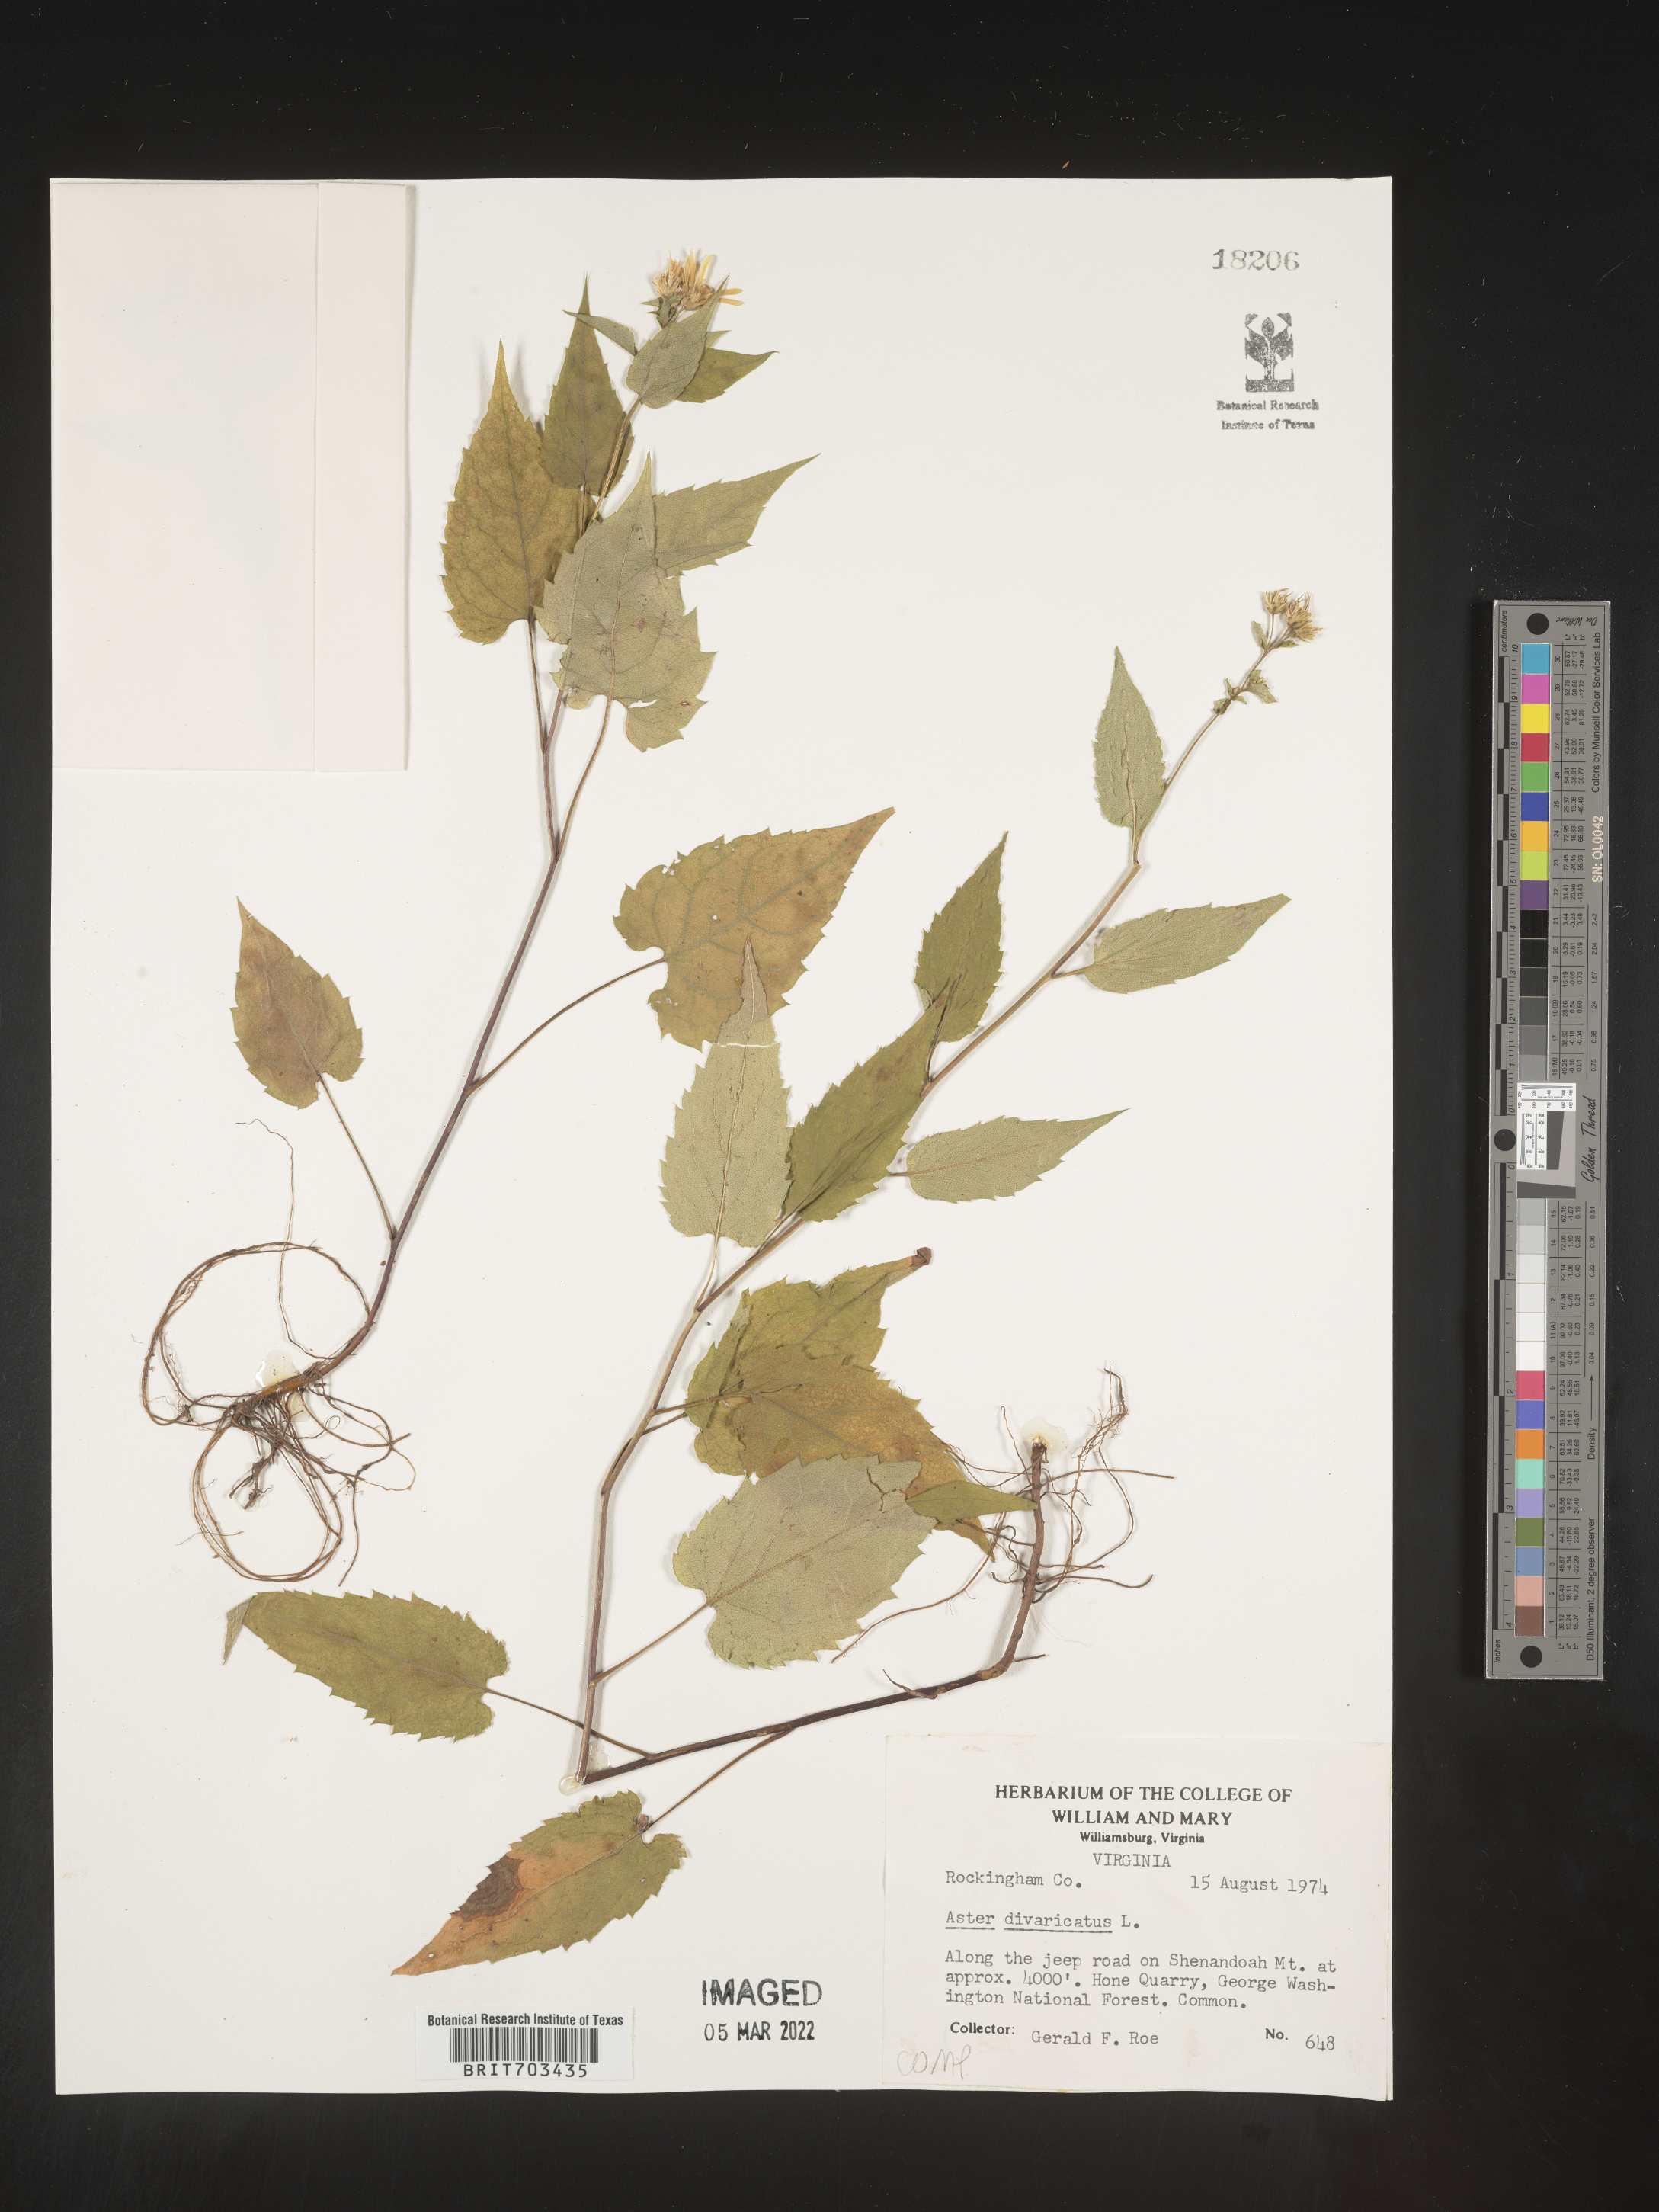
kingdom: Plantae
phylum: Tracheophyta
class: Magnoliopsida
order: Asterales
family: Asteraceae
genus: Eurybia
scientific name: Eurybia divaricata
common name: White wood aster
